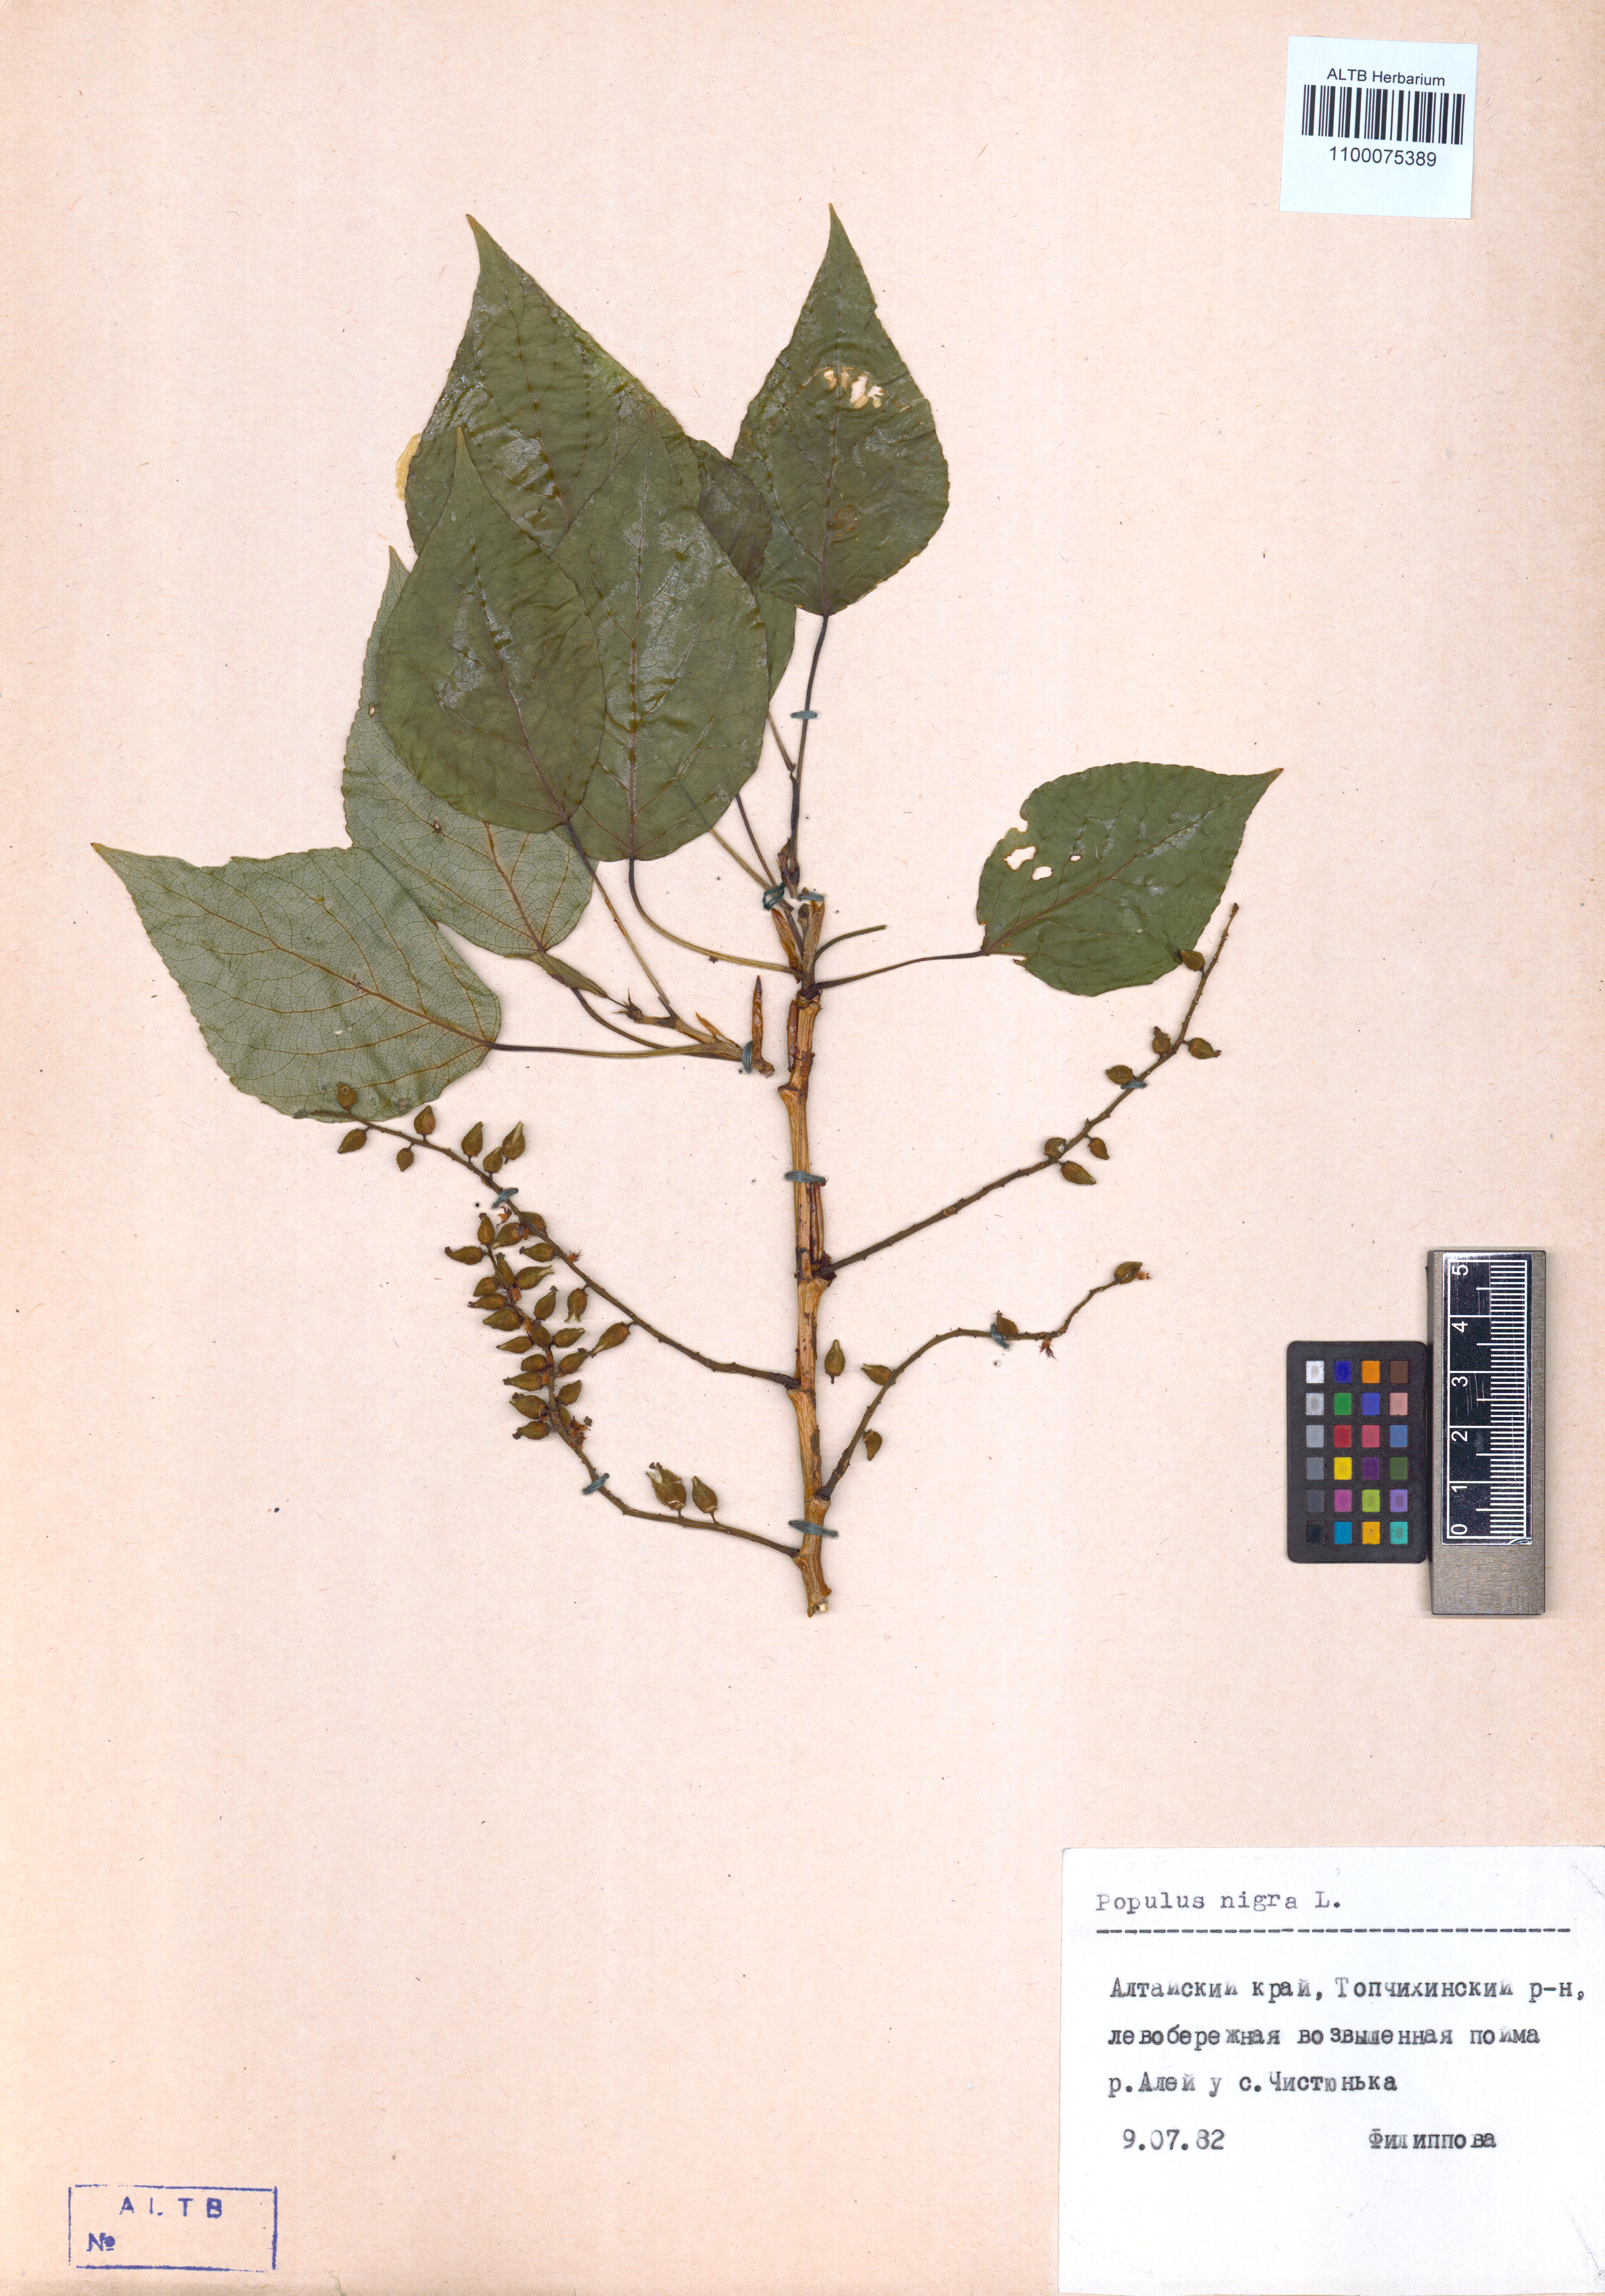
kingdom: Plantae
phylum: Tracheophyta
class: Magnoliopsida
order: Malpighiales
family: Salicaceae
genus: Populus
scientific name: Populus nigra
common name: Black poplar
